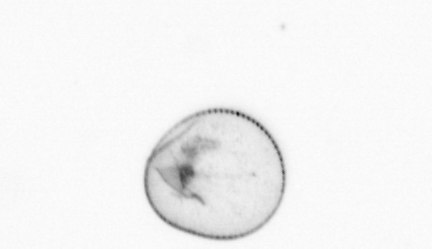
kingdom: Chromista
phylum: Myzozoa
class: Dinophyceae
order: Noctilucales
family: Noctilucaceae
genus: Noctiluca
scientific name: Noctiluca scintillans
